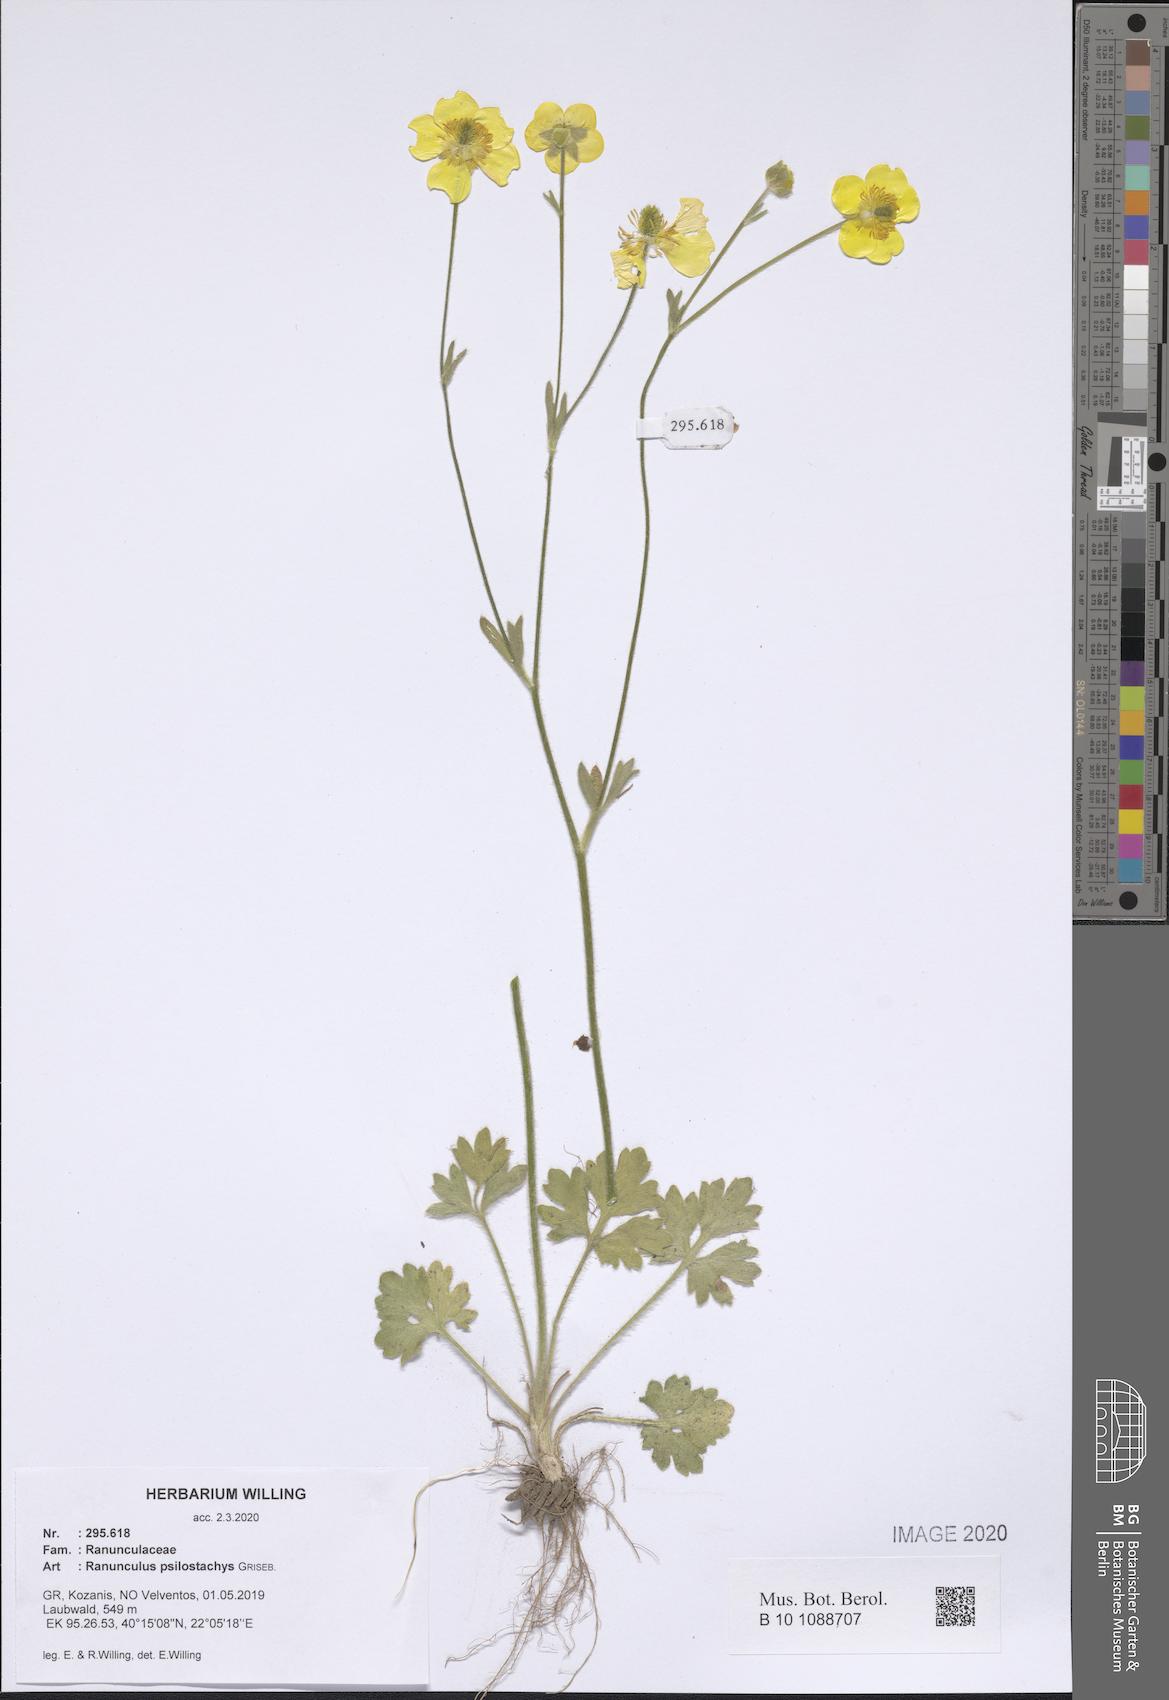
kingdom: Plantae
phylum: Tracheophyta
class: Magnoliopsida
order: Ranunculales
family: Ranunculaceae
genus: Ranunculus
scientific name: Ranunculus psilostachys
